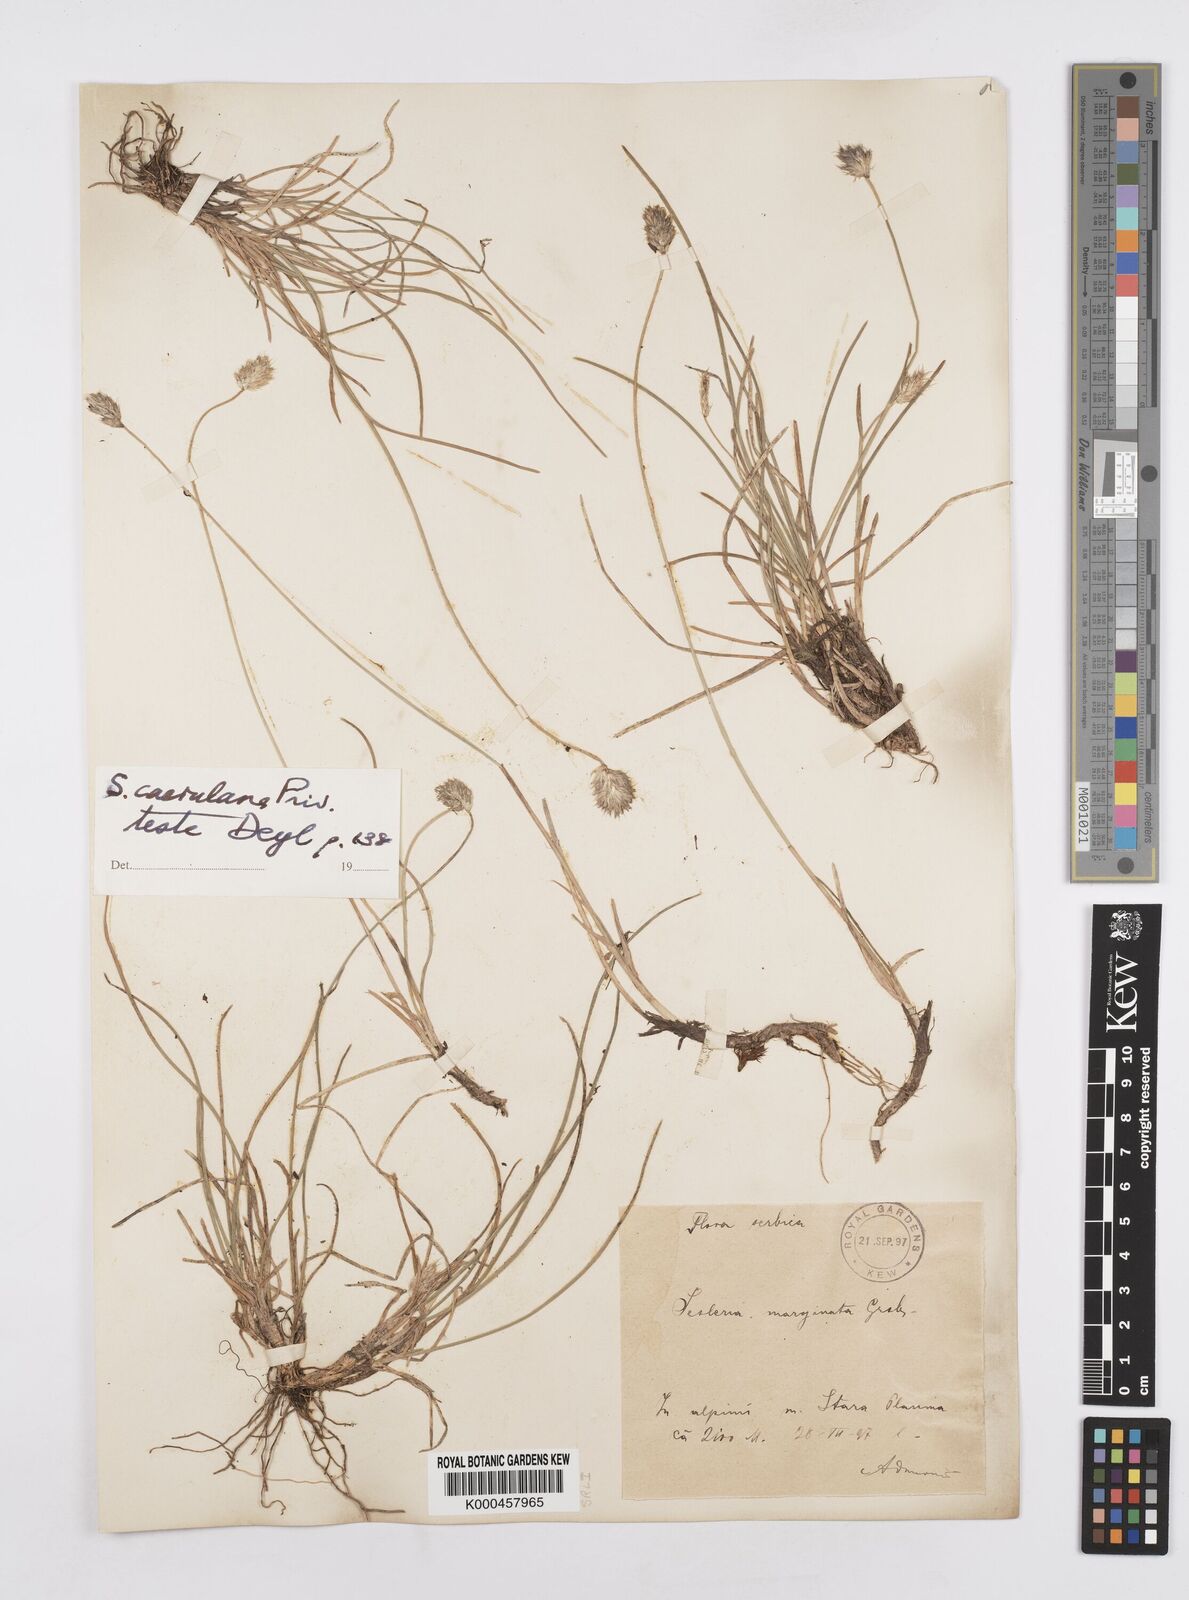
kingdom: Plantae
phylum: Tracheophyta
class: Liliopsida
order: Poales
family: Poaceae
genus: Sesleria
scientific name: Sesleria coerulans
